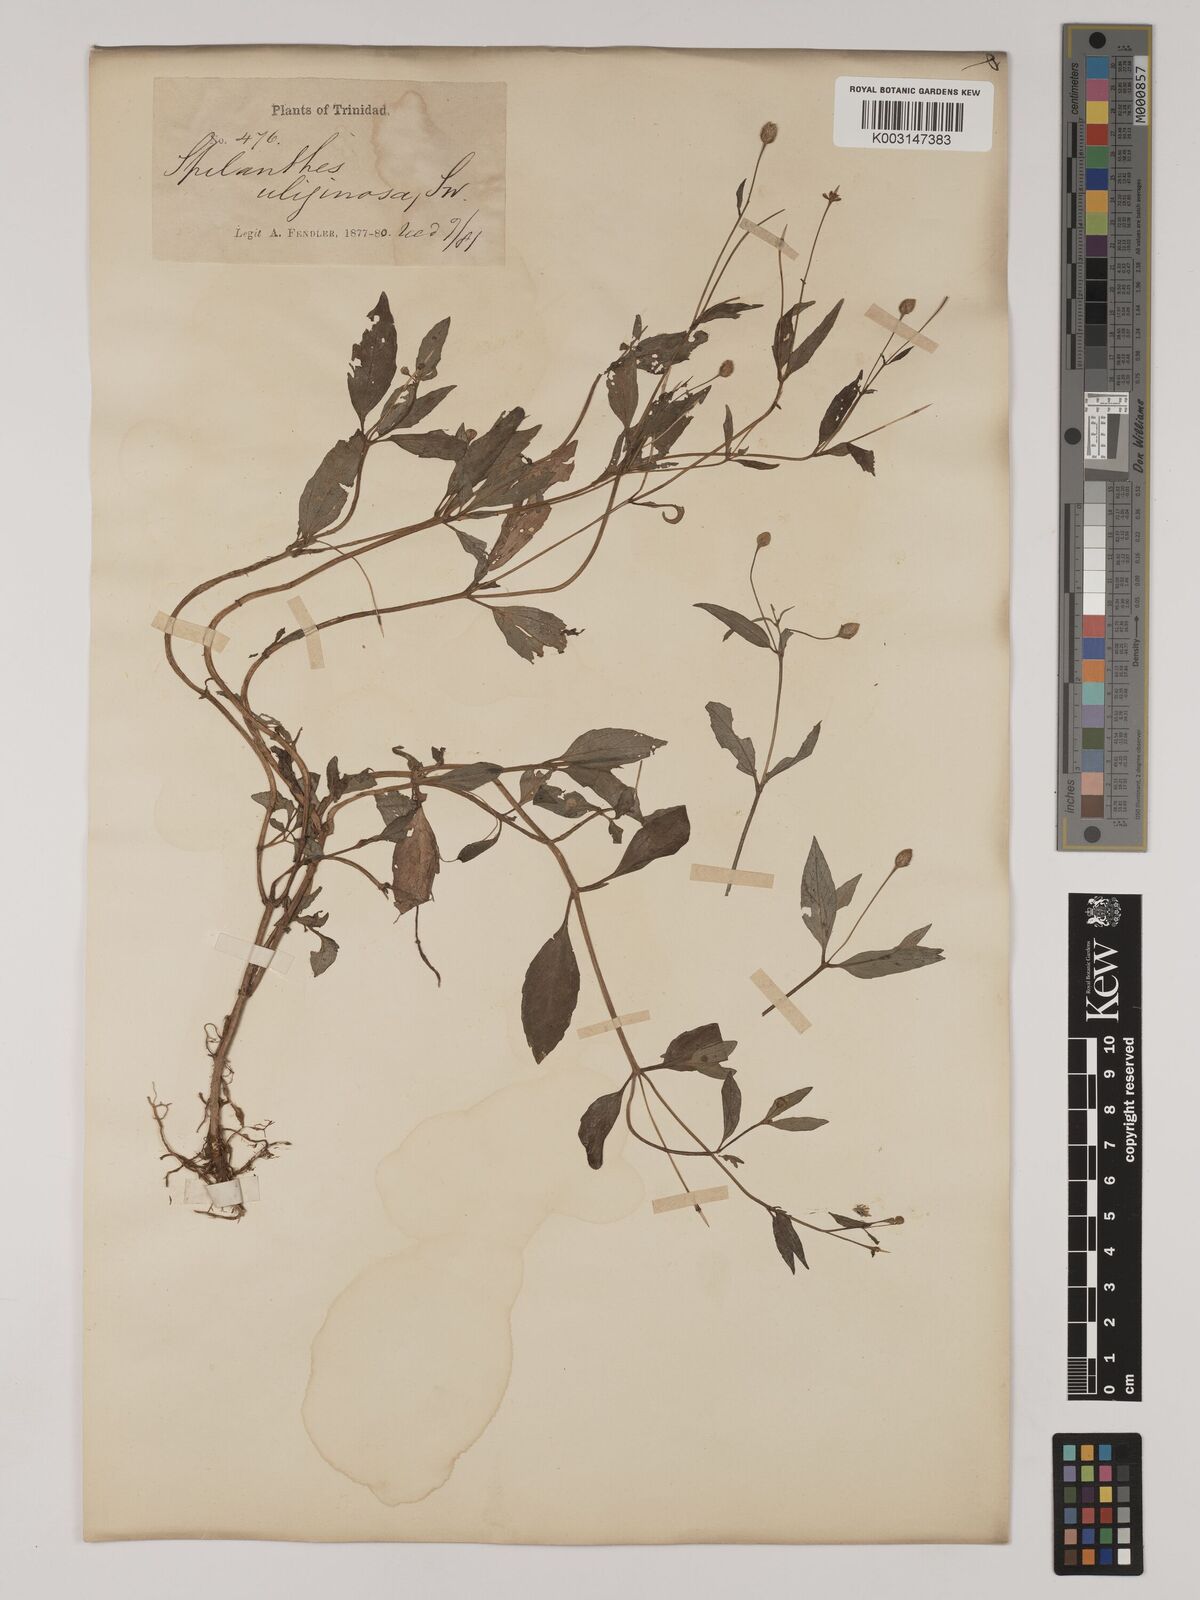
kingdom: Plantae
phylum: Tracheophyta
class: Magnoliopsida
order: Asterales
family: Asteraceae
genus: Acmella
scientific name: Acmella uliginosa
